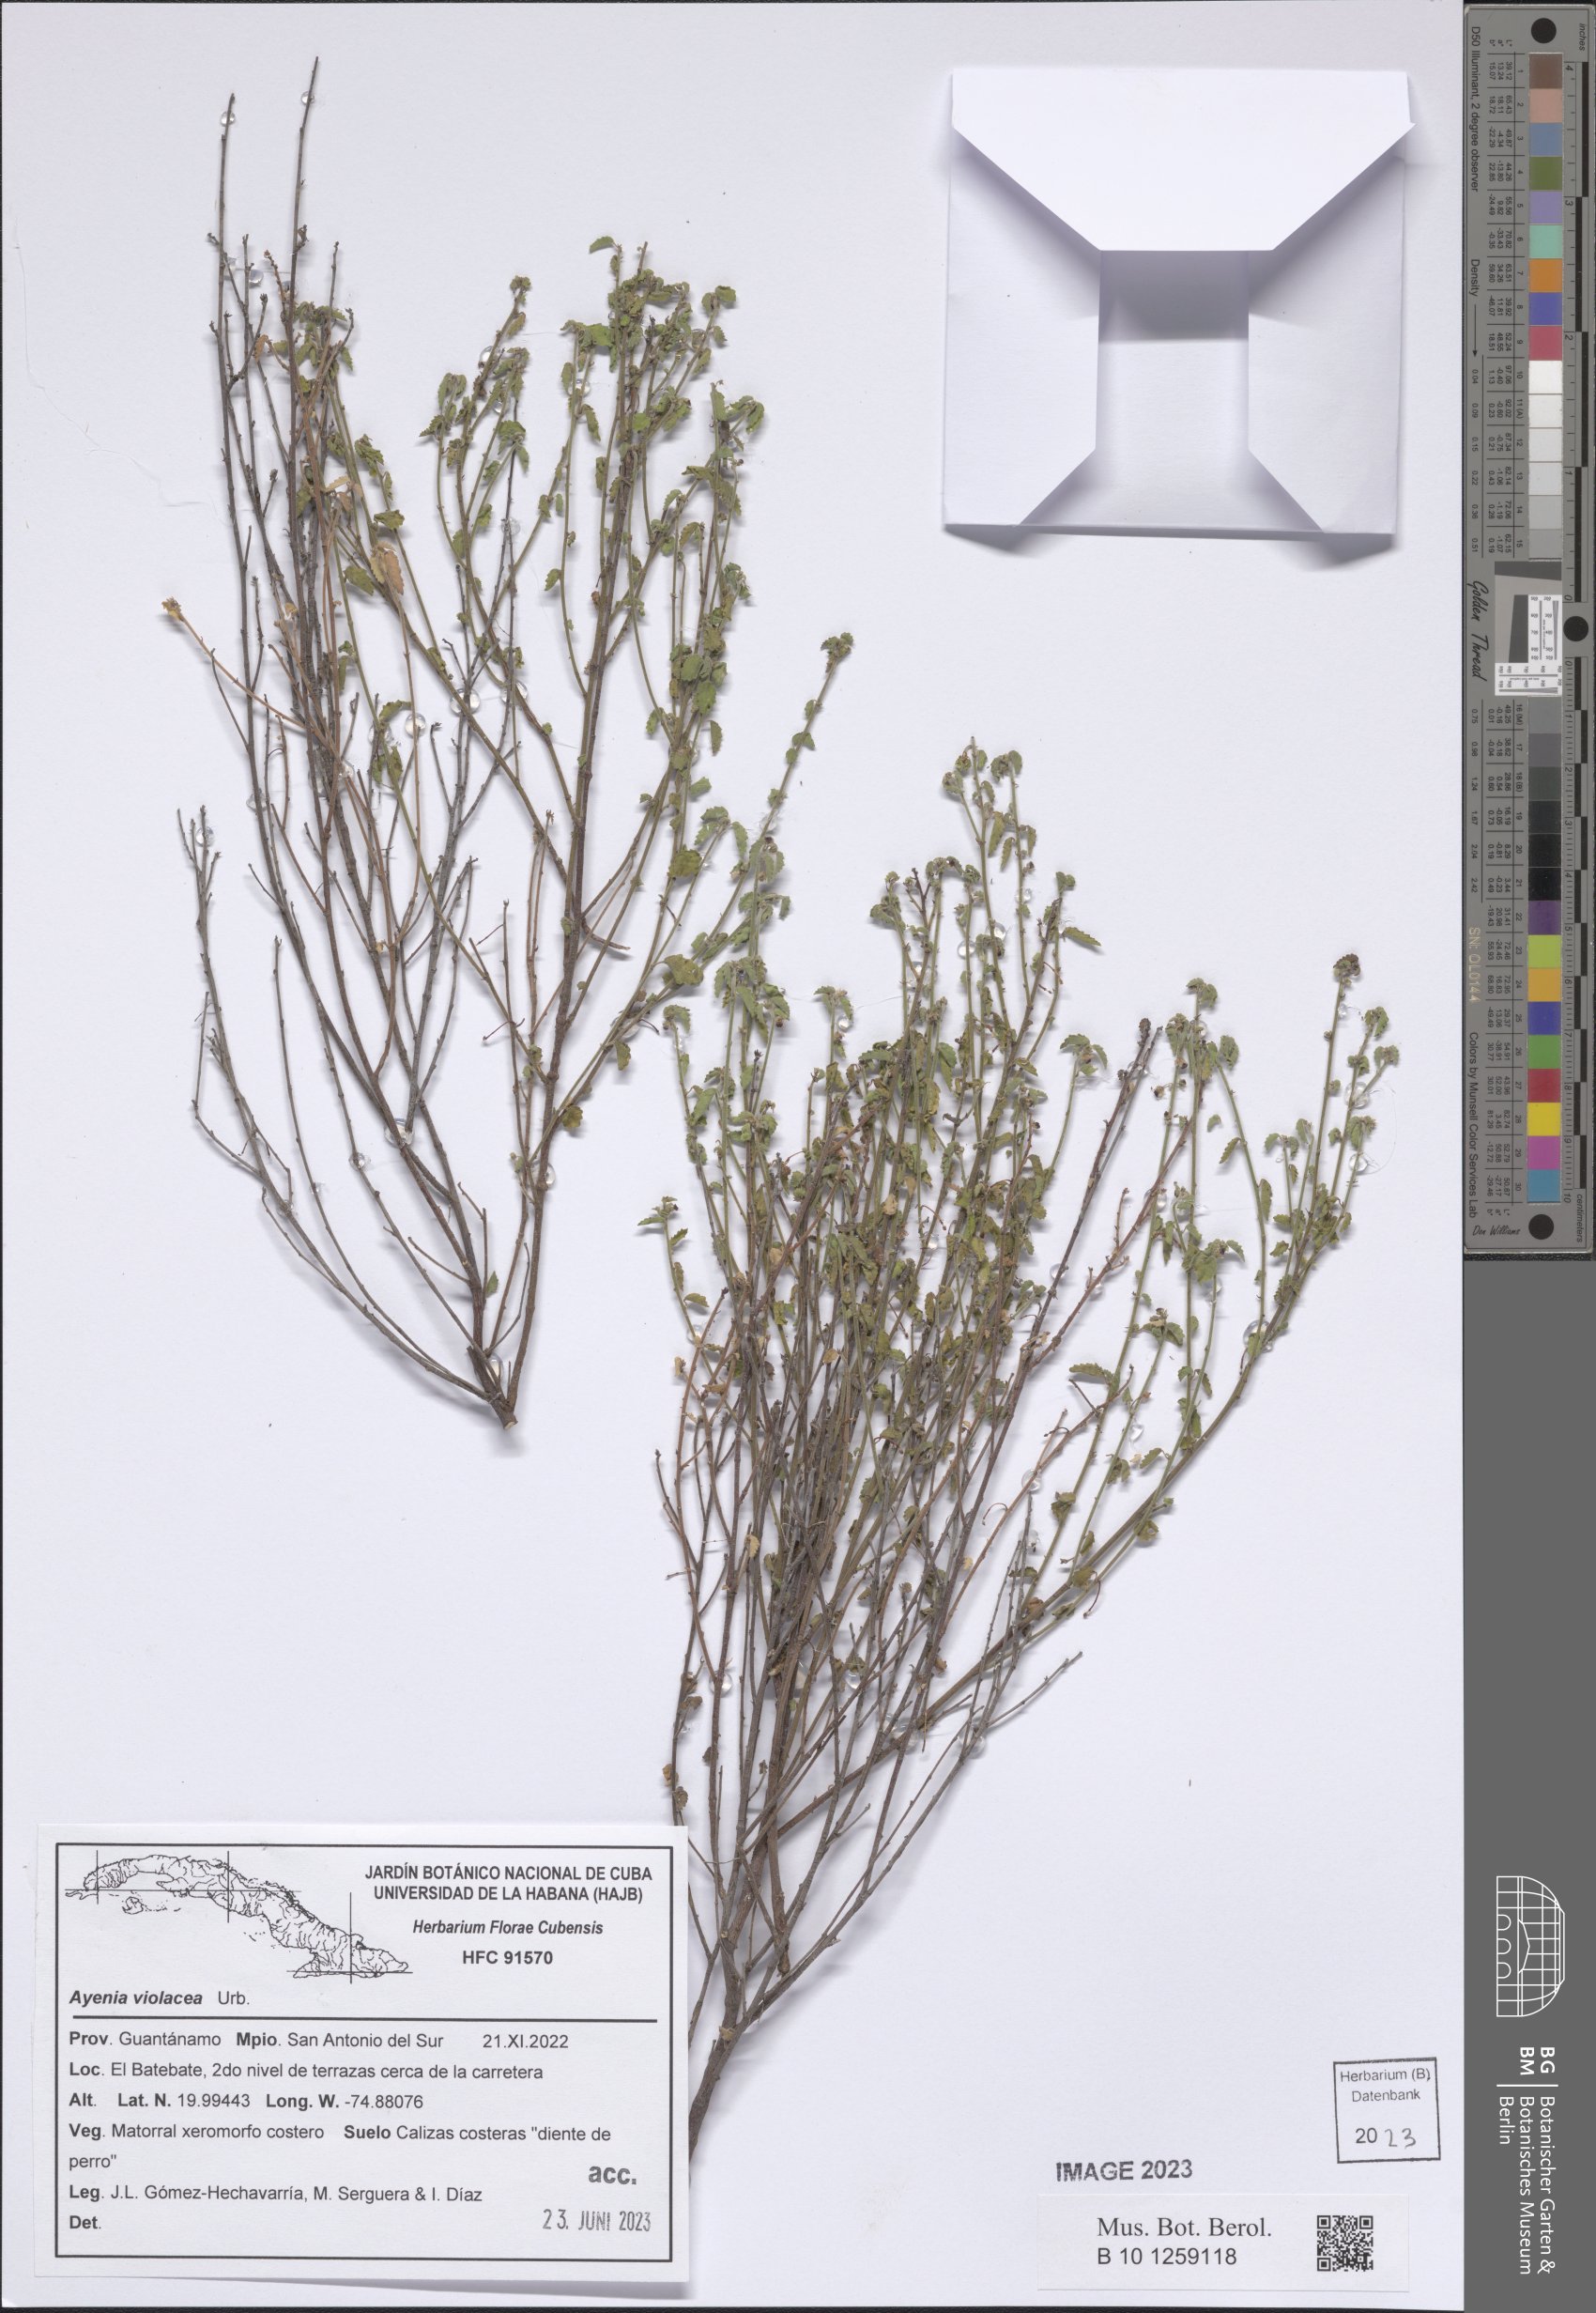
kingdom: Plantae
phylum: Tracheophyta
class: Magnoliopsida
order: Malvales
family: Malvaceae
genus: Ayenia
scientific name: Ayenia violacea
